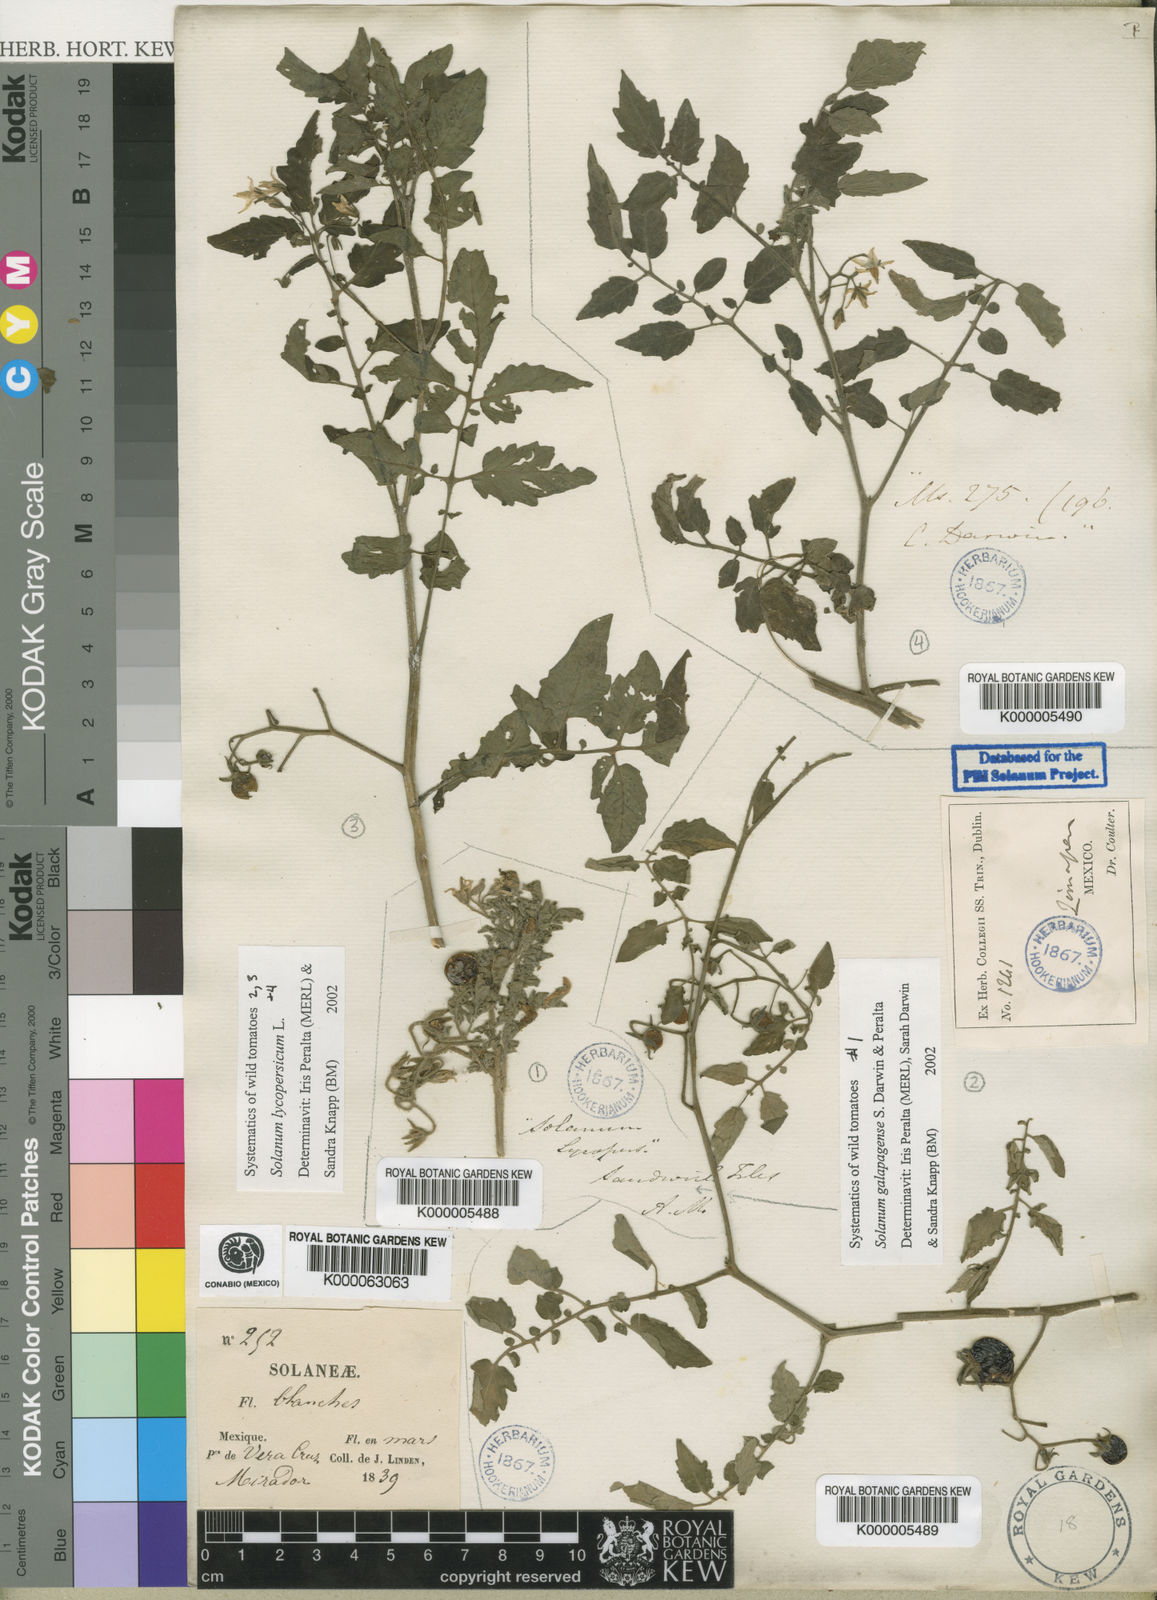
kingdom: Plantae
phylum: Tracheophyta
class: Magnoliopsida
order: Solanales
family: Solanaceae
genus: Solanum
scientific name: Solanum galapagense
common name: Galápagos tomato
